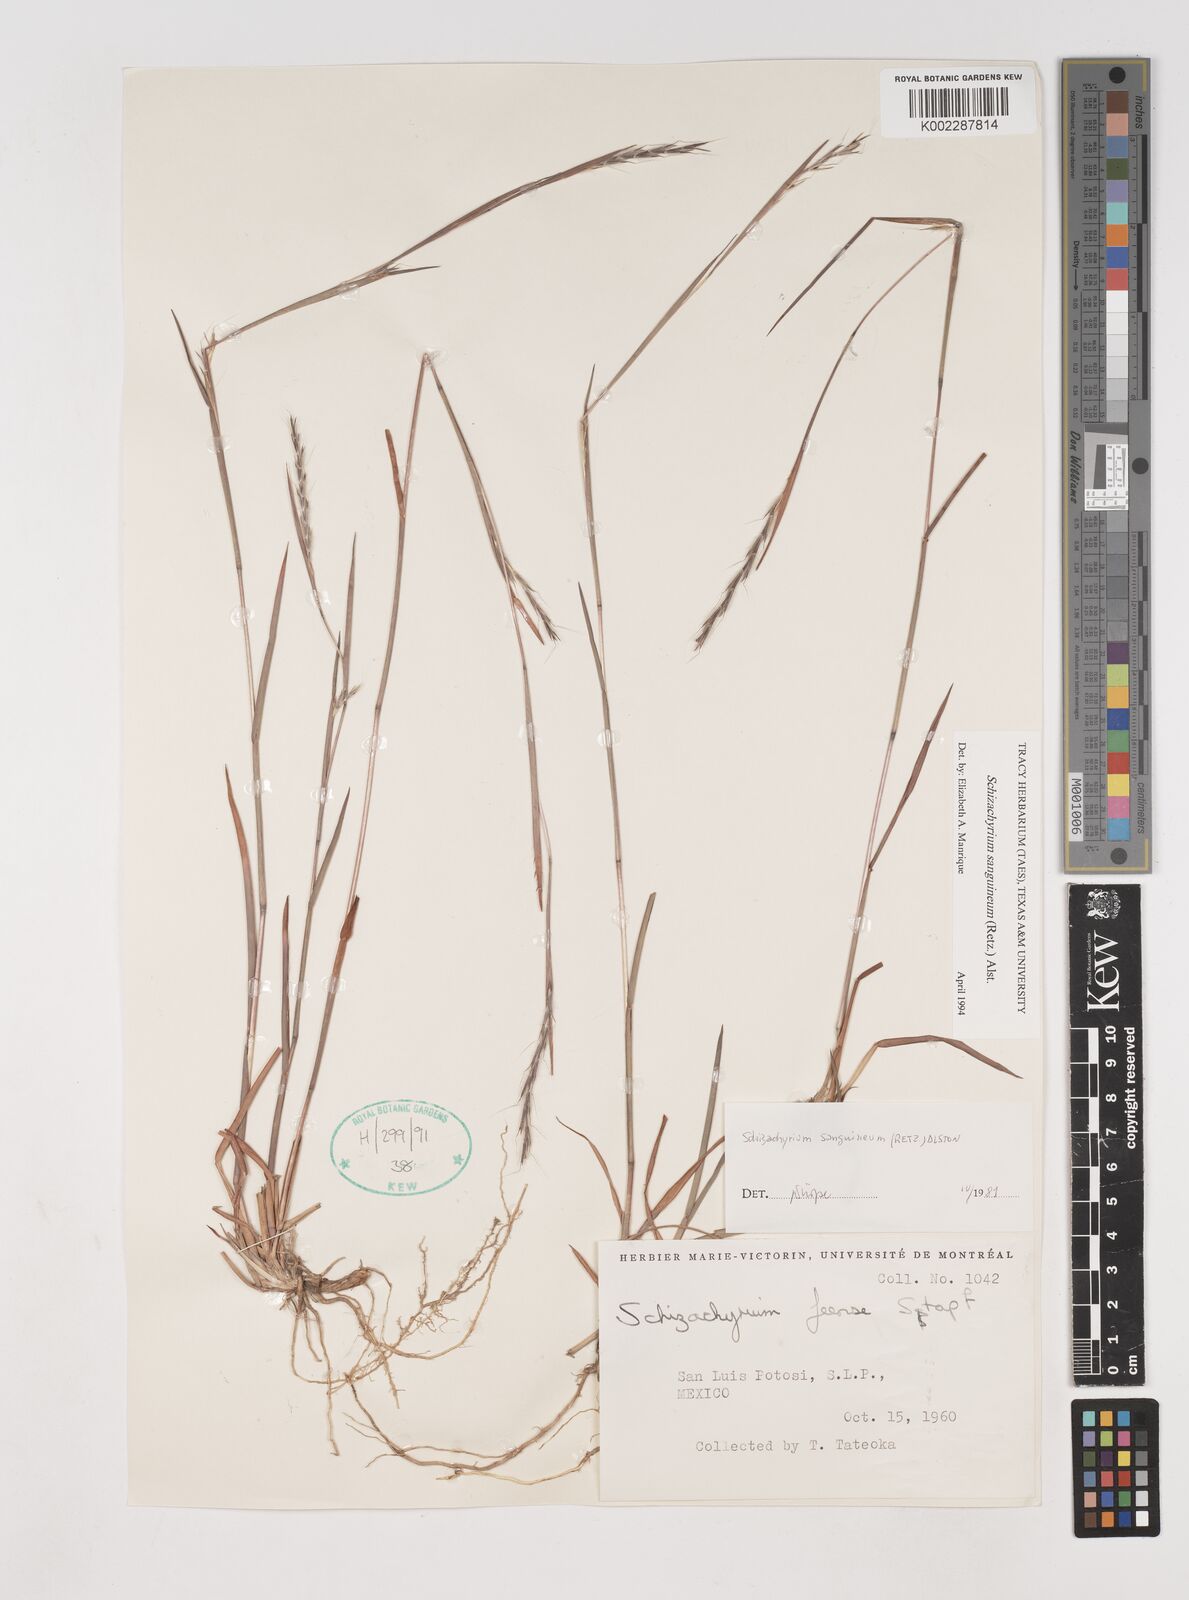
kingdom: Plantae
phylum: Tracheophyta
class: Liliopsida
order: Poales
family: Poaceae
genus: Schizachyrium
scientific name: Schizachyrium sanguineum
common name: Crimson bluestem
